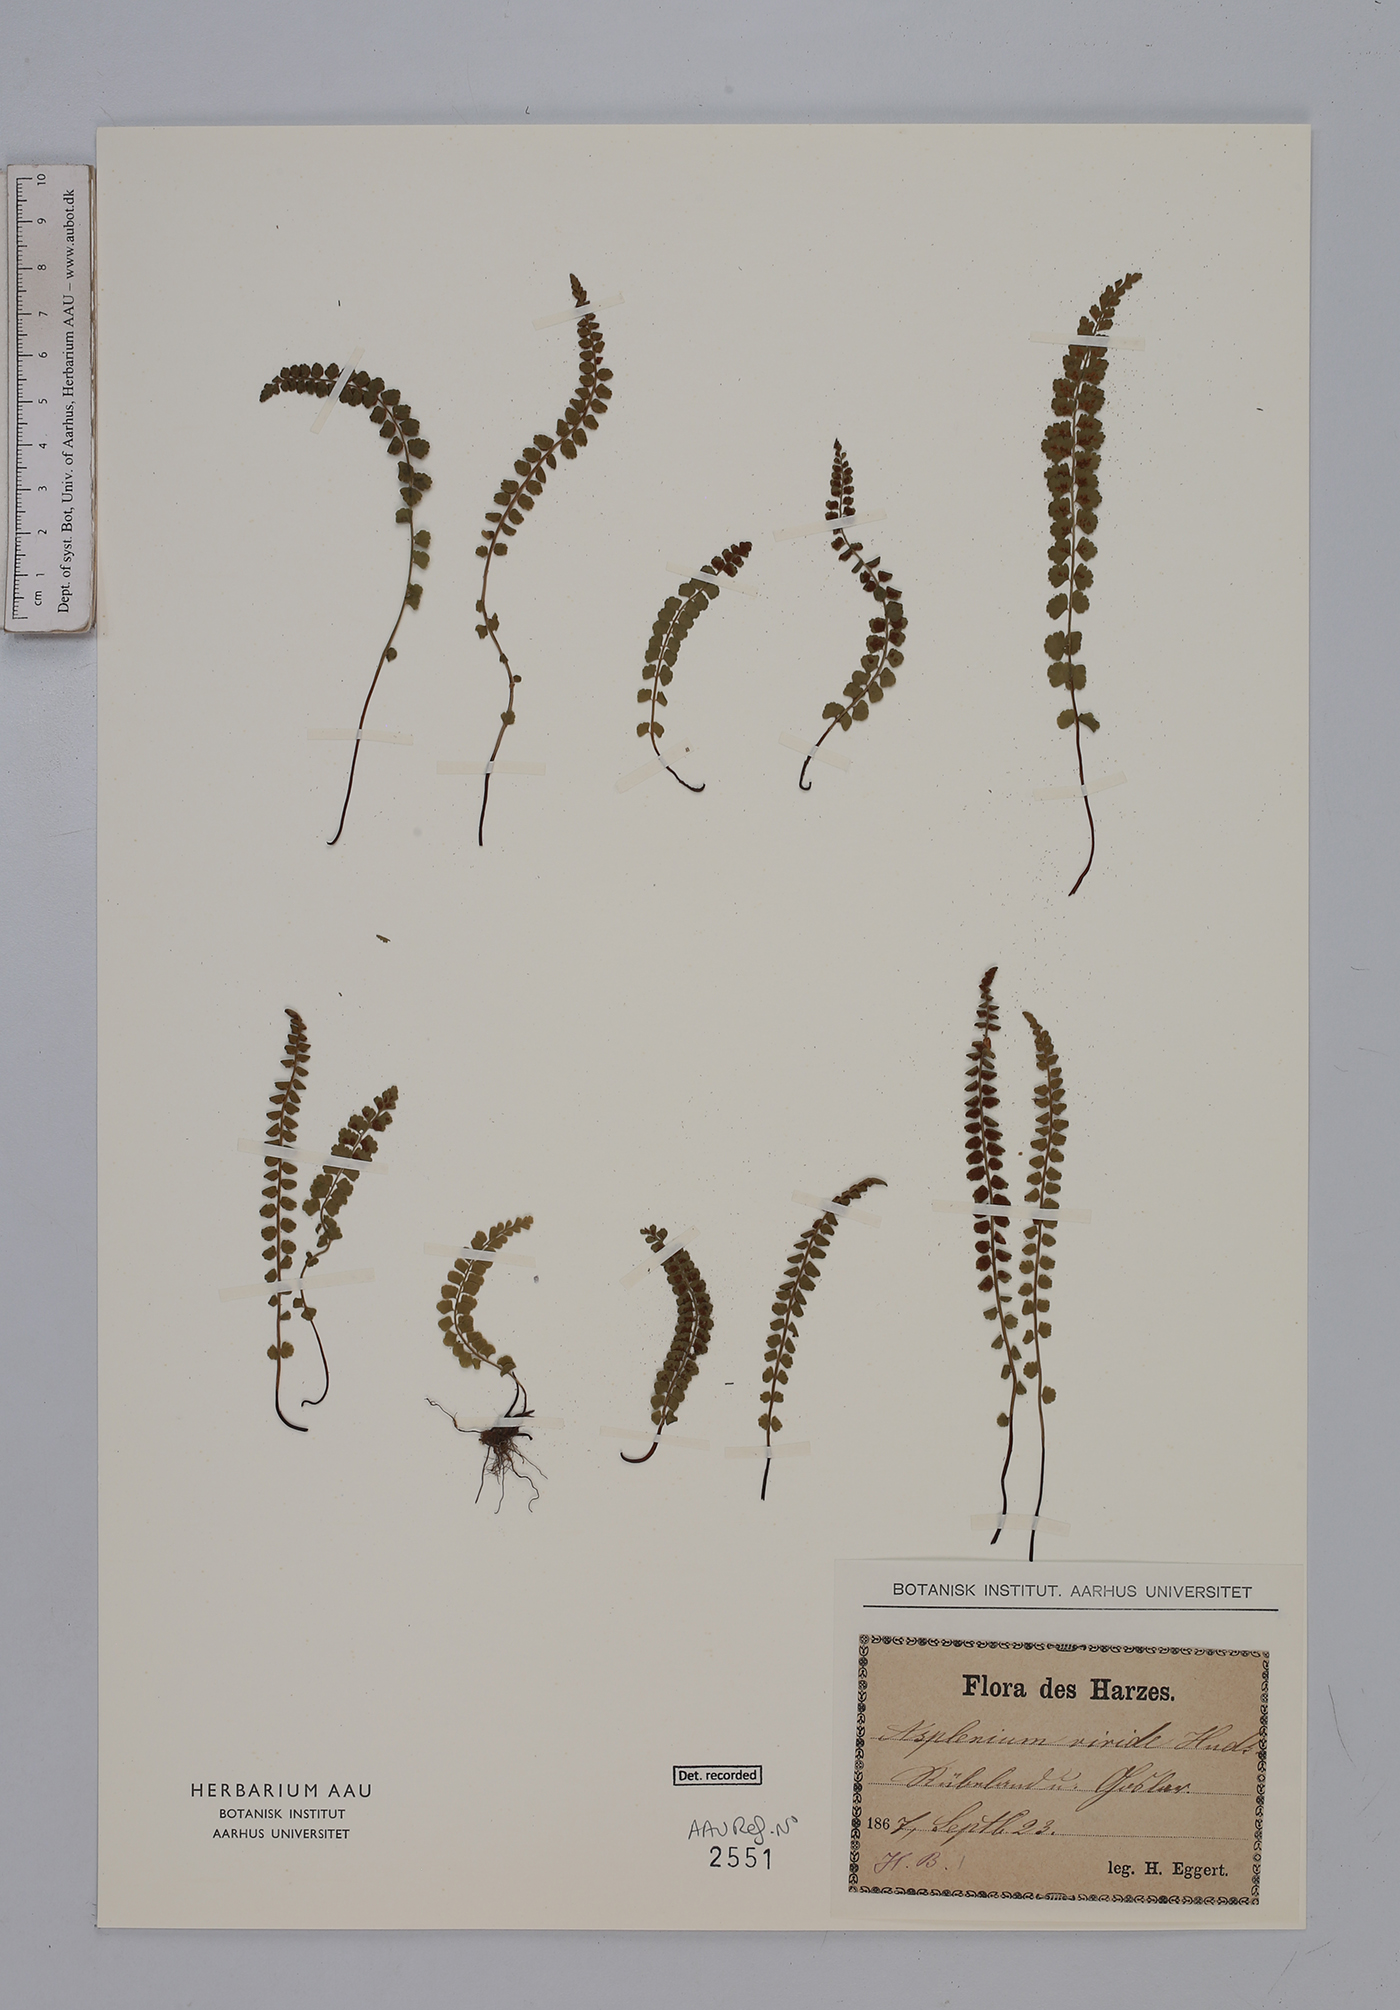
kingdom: Plantae
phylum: Tracheophyta
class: Polypodiopsida
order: Polypodiales
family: Aspleniaceae
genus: Asplenium
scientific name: Asplenium viride
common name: Green spleenwort
